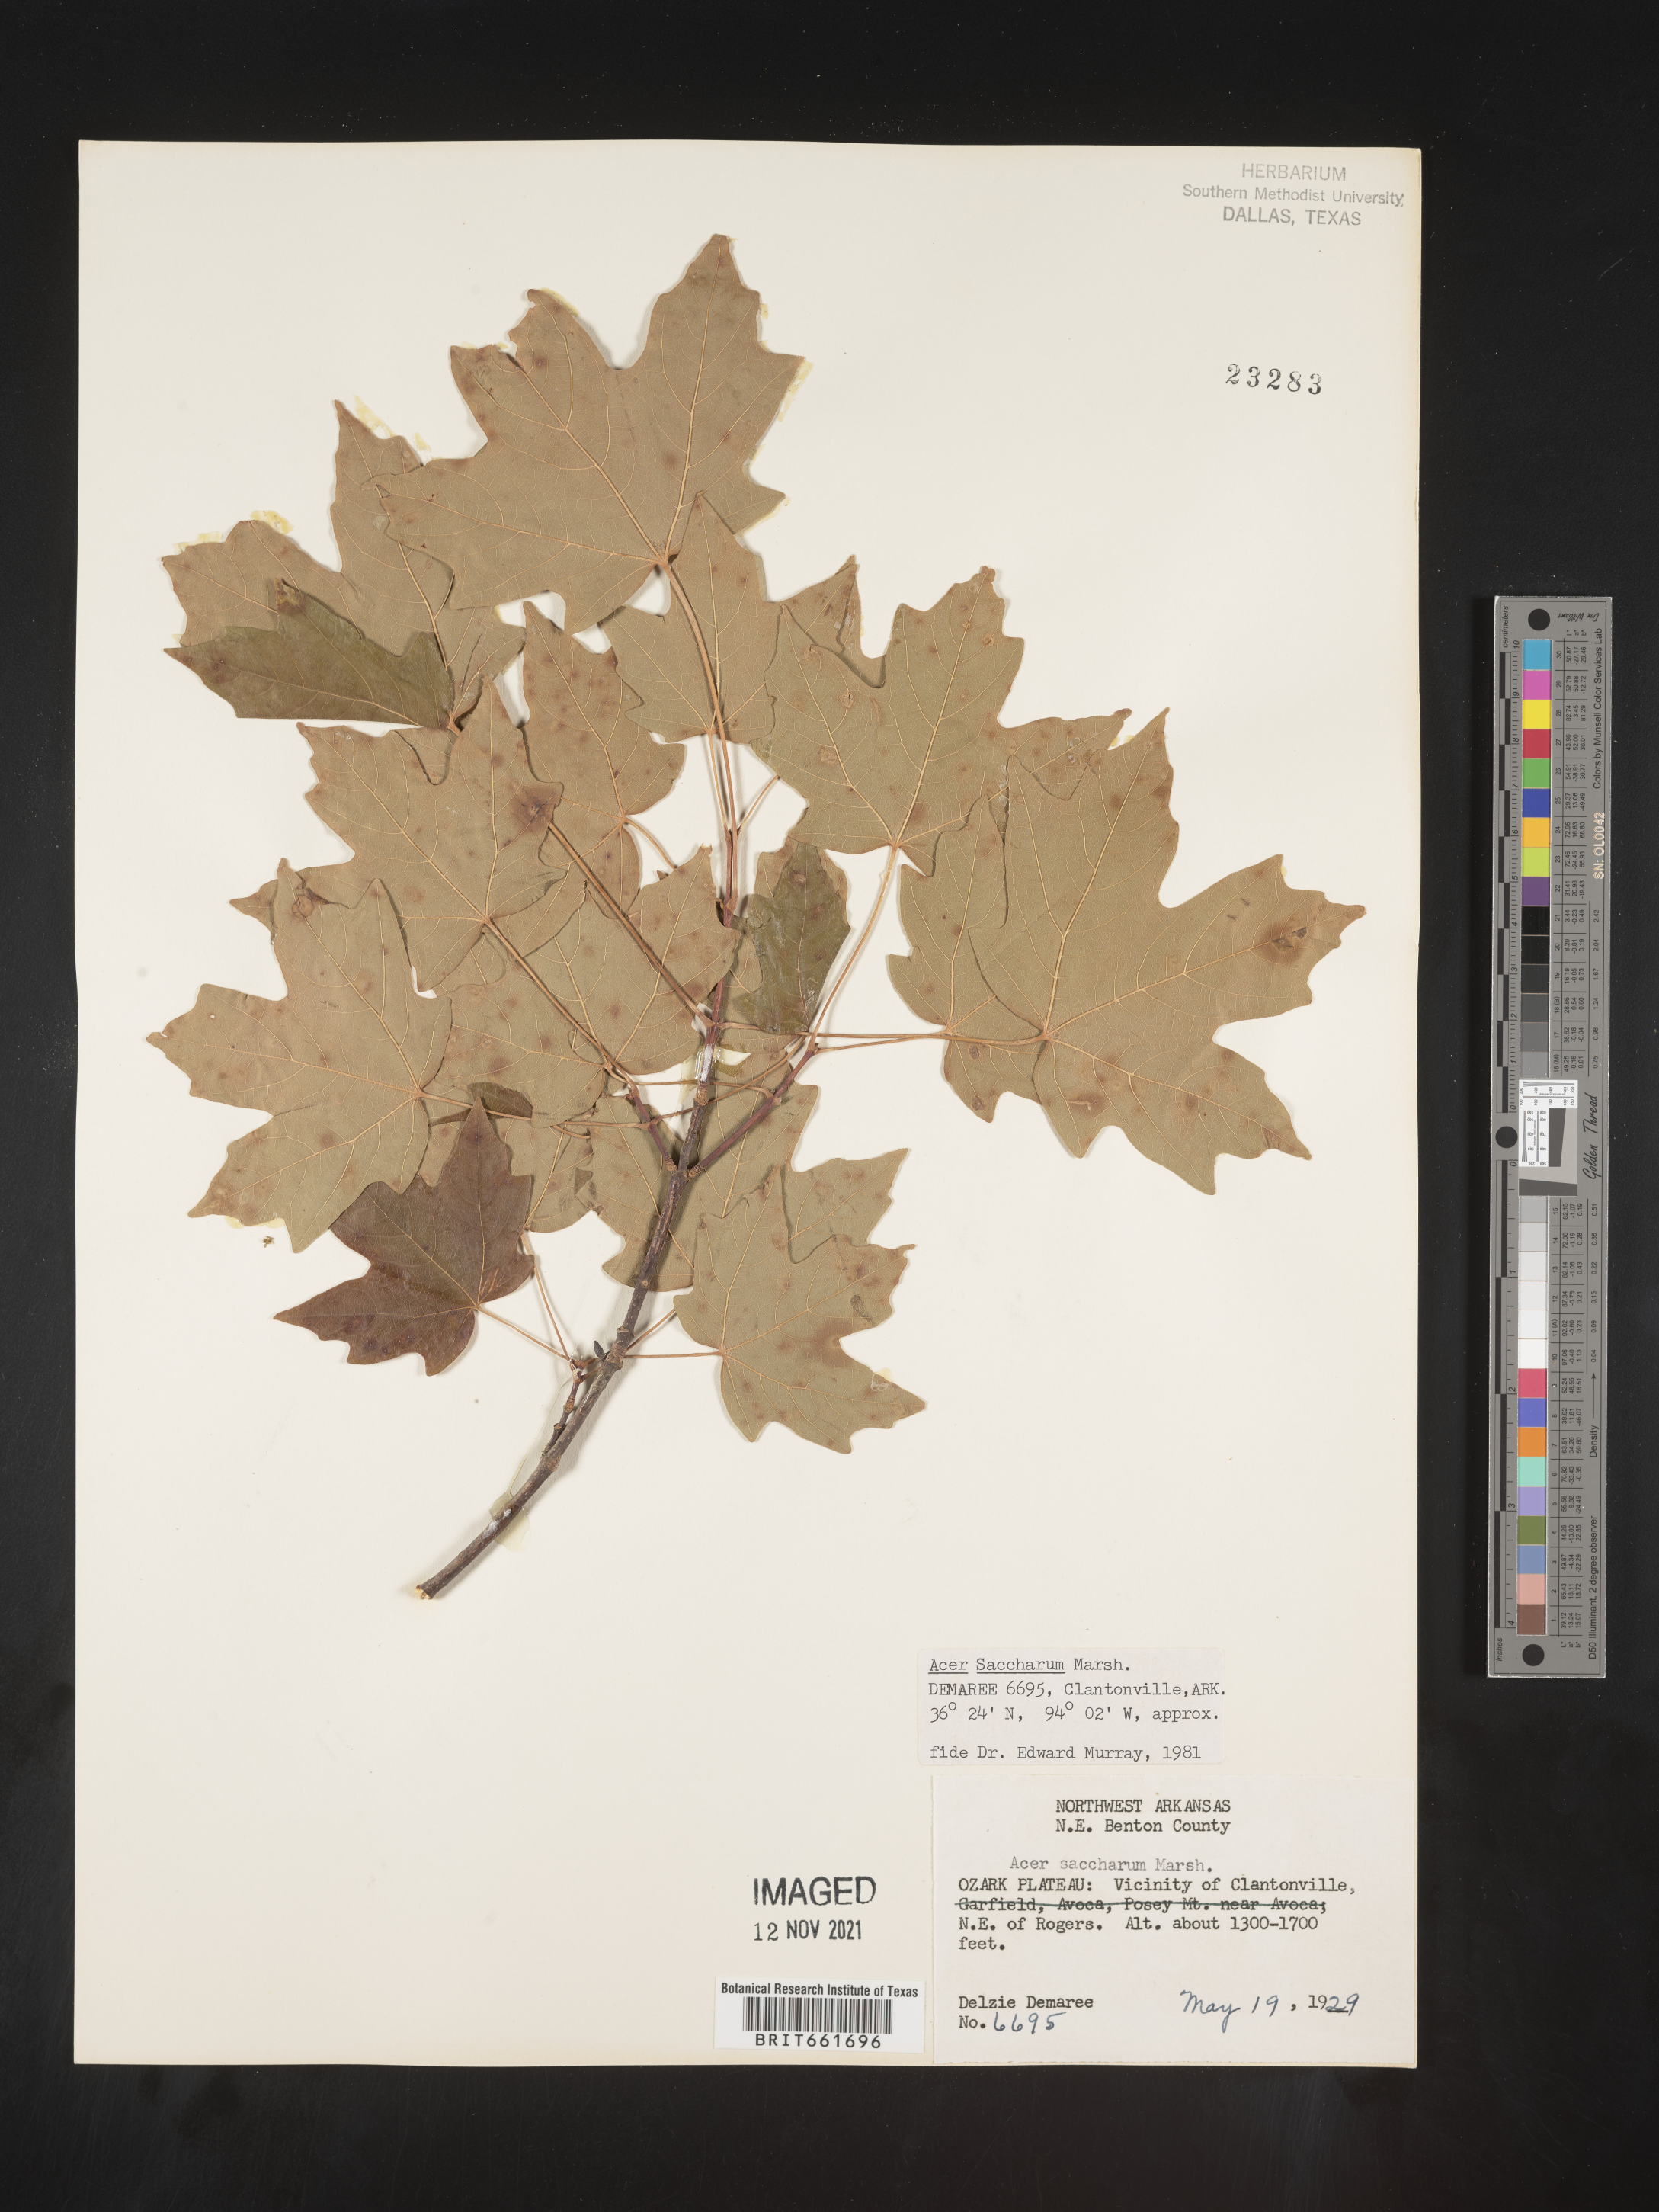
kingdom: Plantae
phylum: Tracheophyta
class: Magnoliopsida
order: Sapindales
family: Sapindaceae
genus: Acer
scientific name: Acer saccharum
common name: Sugar maple
